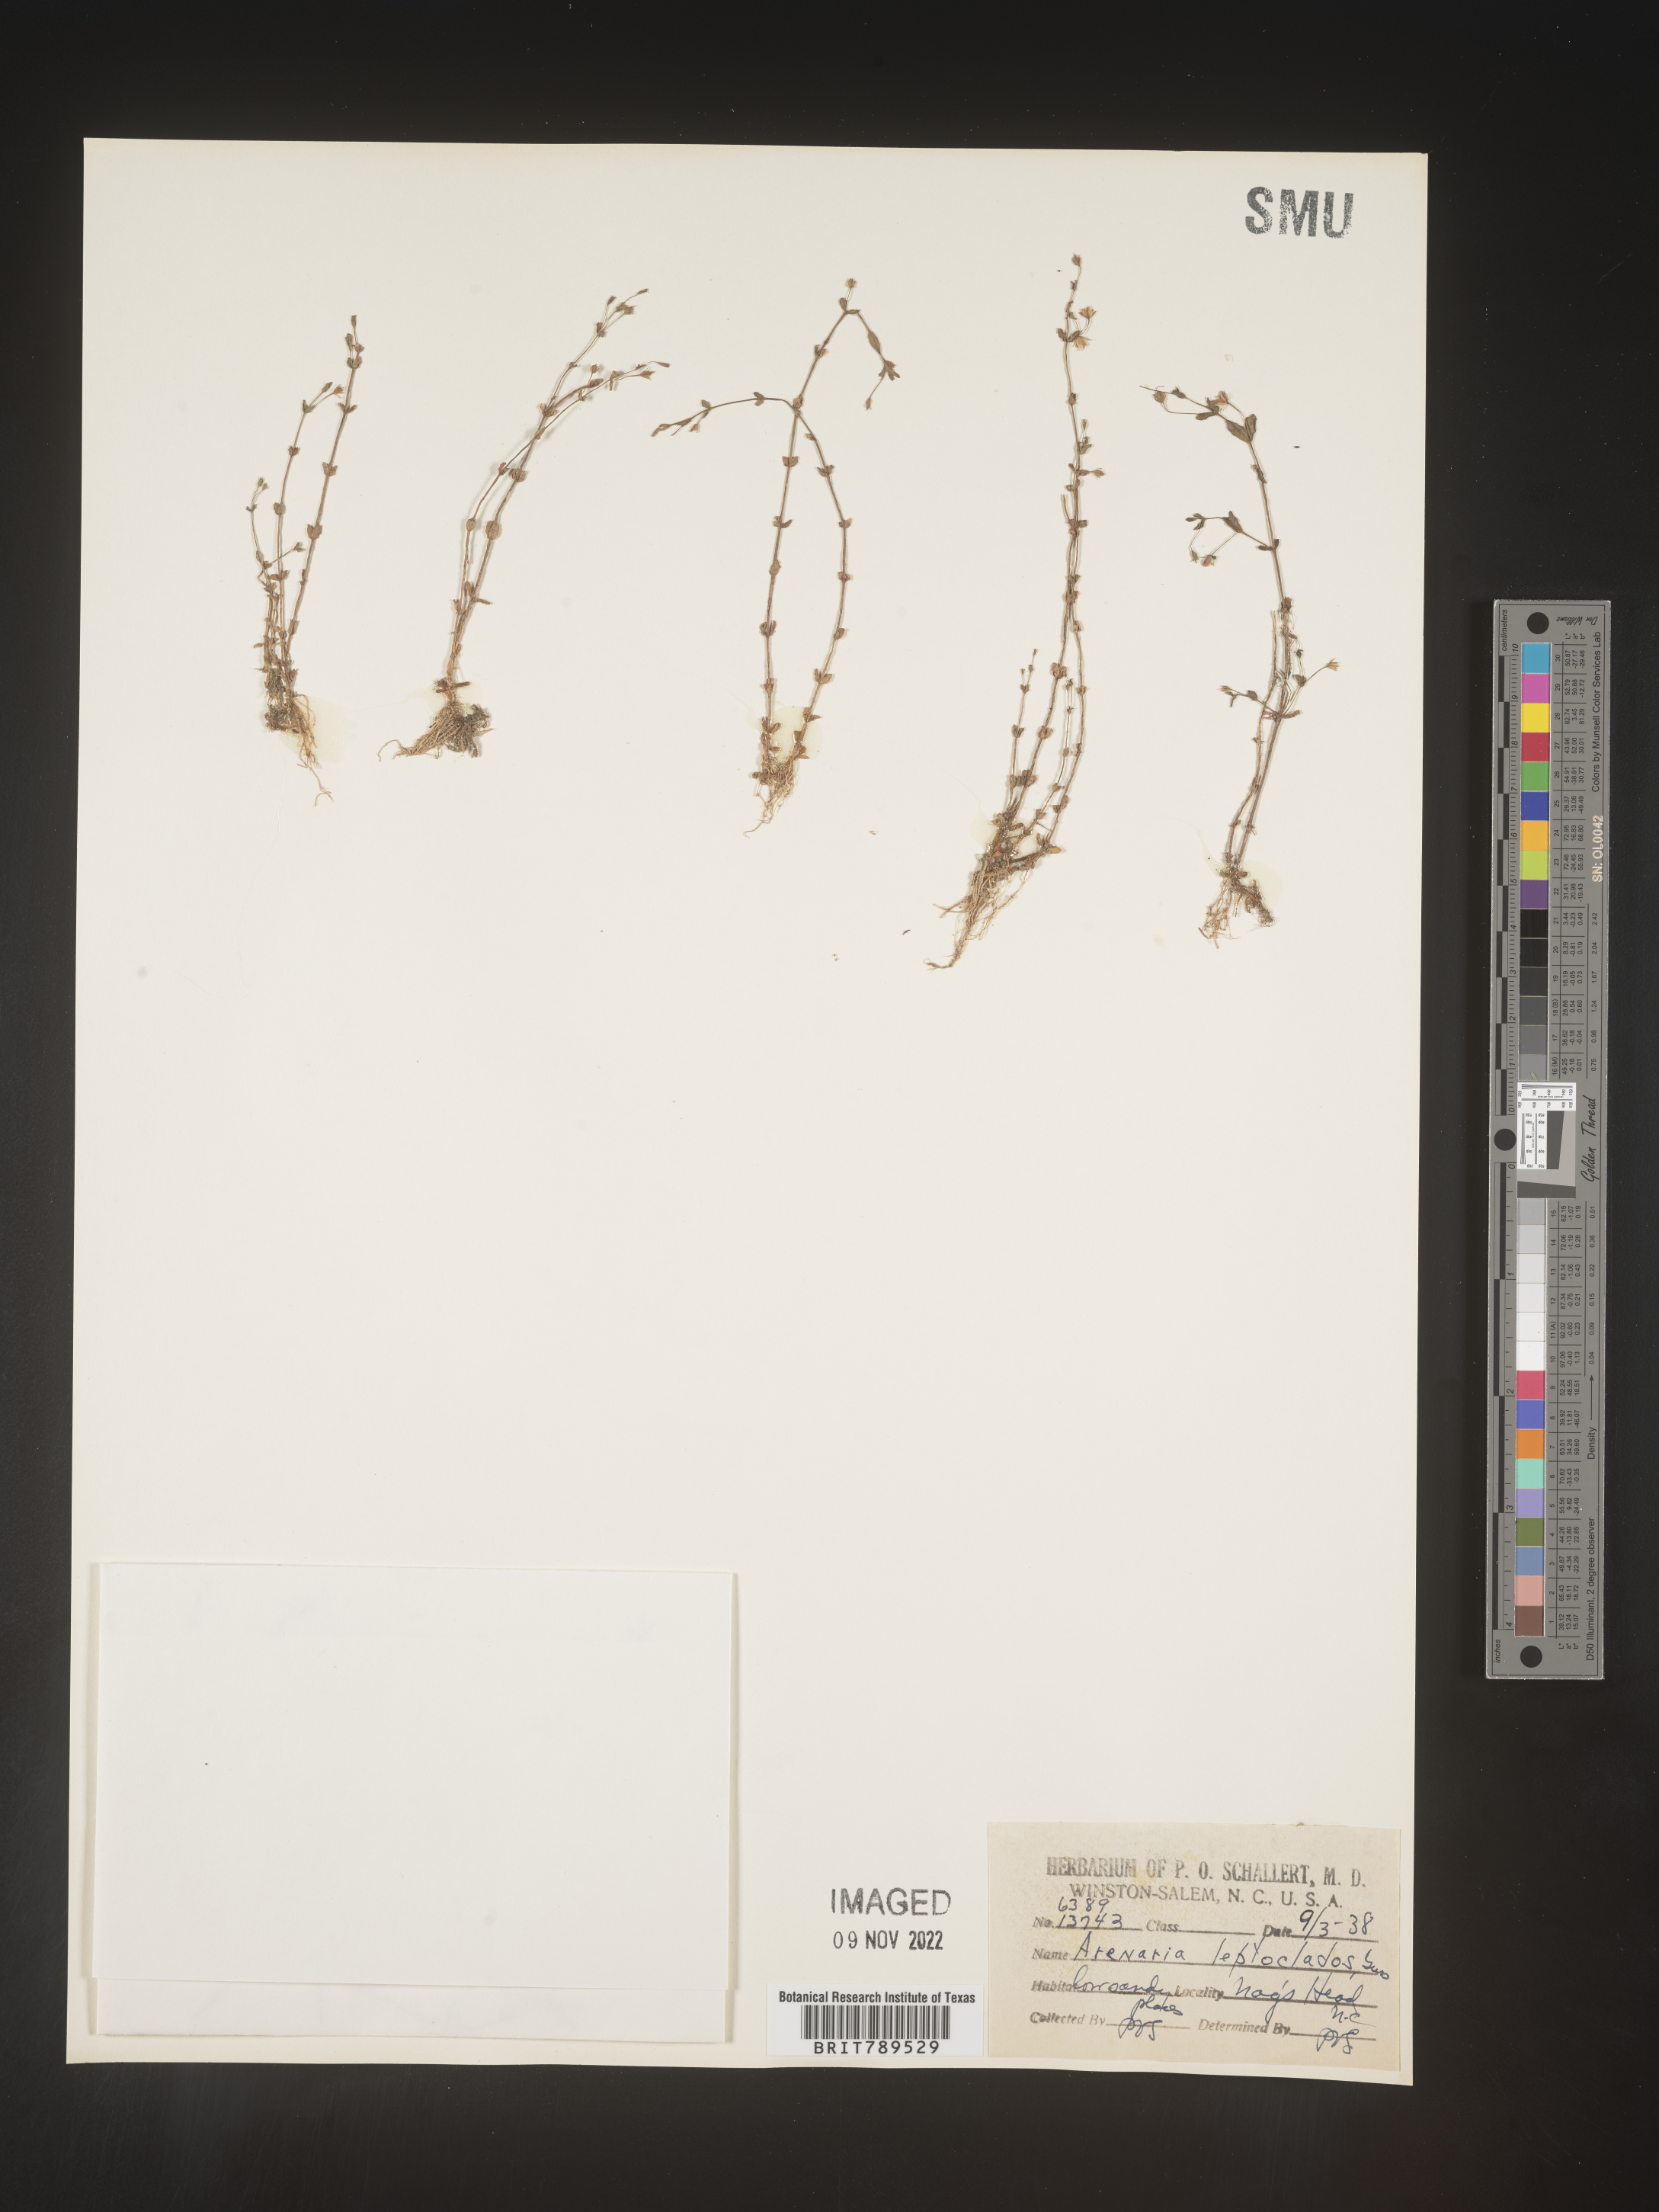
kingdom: Plantae
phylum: Tracheophyta
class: Magnoliopsida
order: Caryophyllales
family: Caryophyllaceae
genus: Arenaria
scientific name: Arenaria serpyllifolia
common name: Thyme-leaved sandwort
